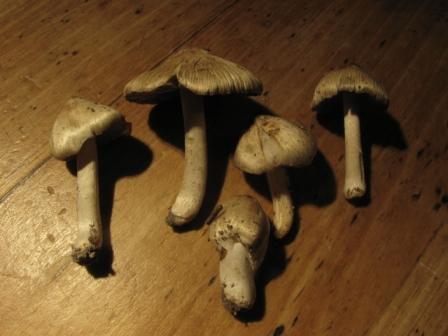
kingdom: Fungi
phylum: Basidiomycota
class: Agaricomycetes
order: Agaricales
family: Inocybaceae
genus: Pseudosperma
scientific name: Pseudosperma
